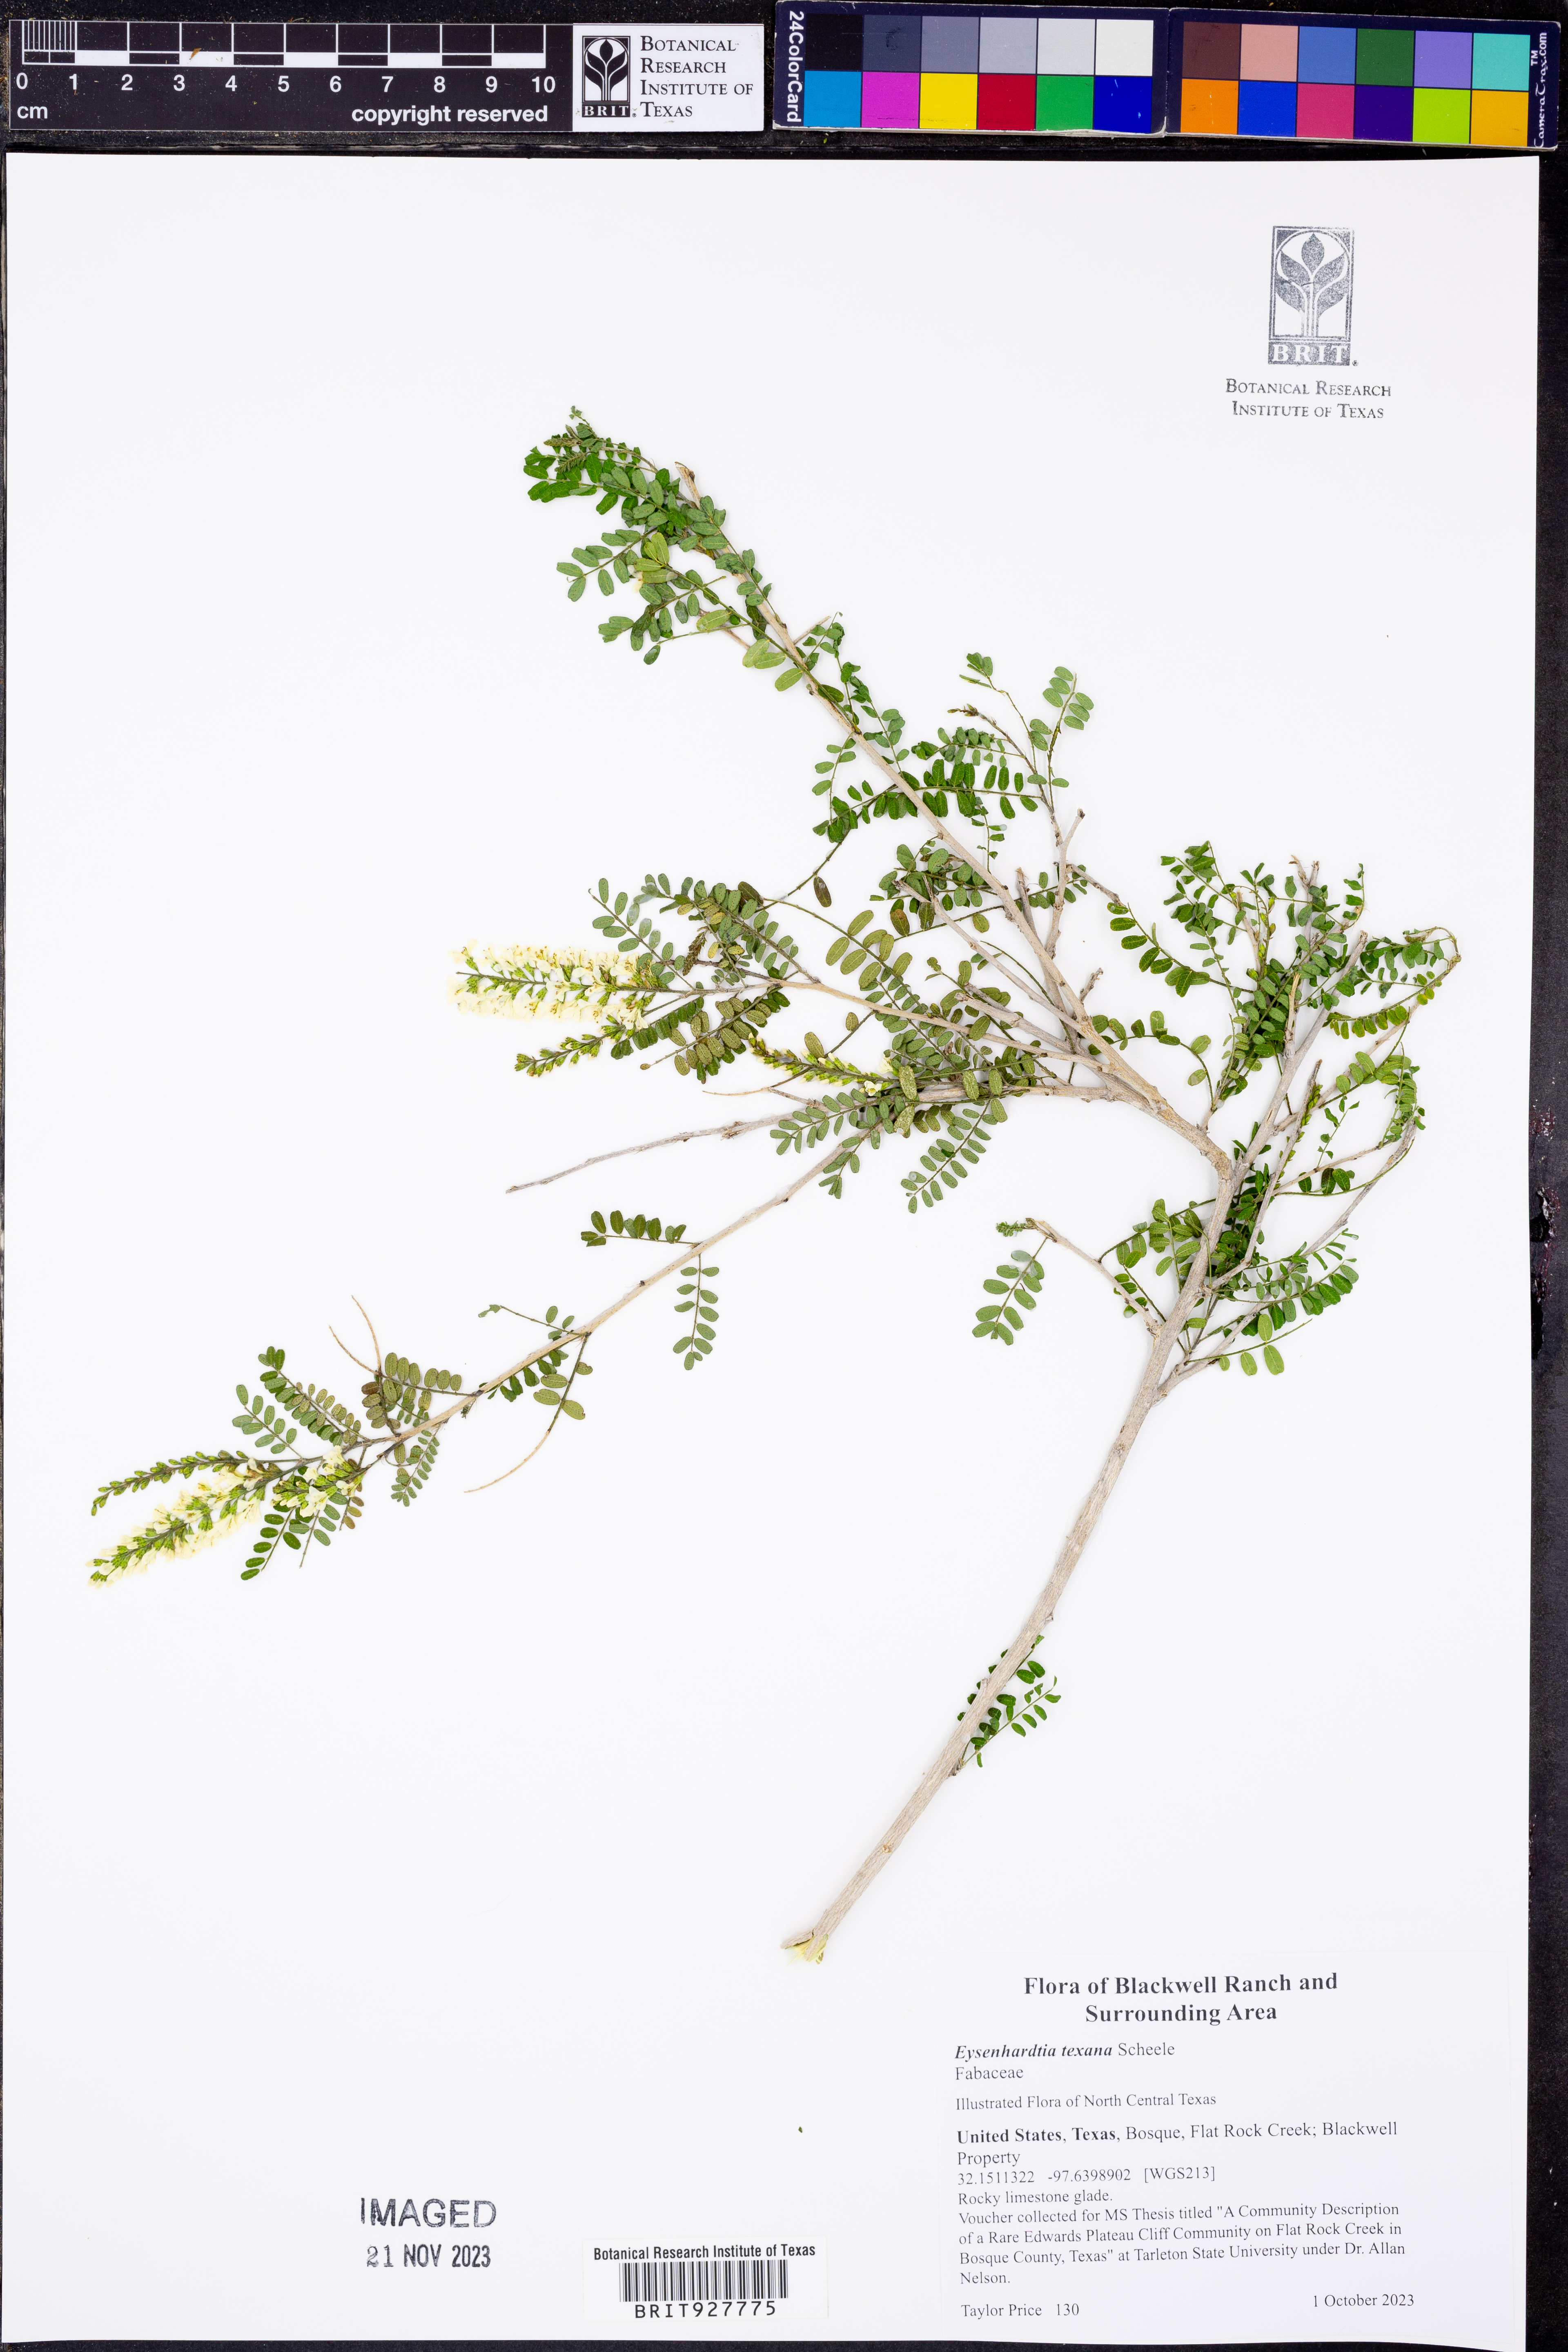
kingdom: Plantae
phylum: Tracheophyta
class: Magnoliopsida
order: Fabales
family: Fabaceae
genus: Eysenhardtia
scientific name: Eysenhardtia texana
